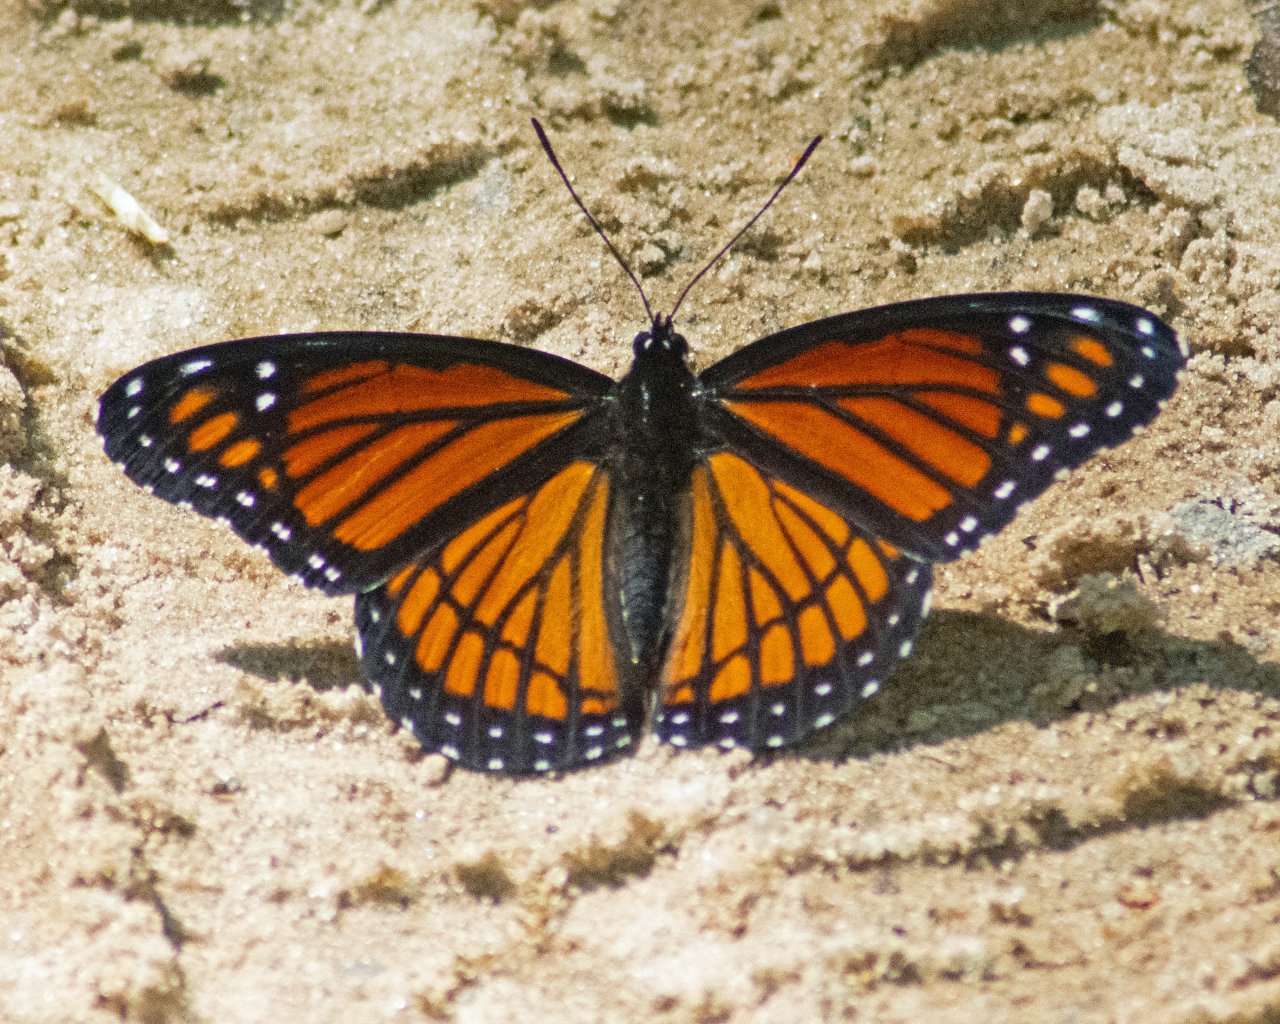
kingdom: Animalia
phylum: Arthropoda
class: Insecta
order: Lepidoptera
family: Nymphalidae
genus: Limenitis
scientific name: Limenitis archippus
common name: Viceroy
